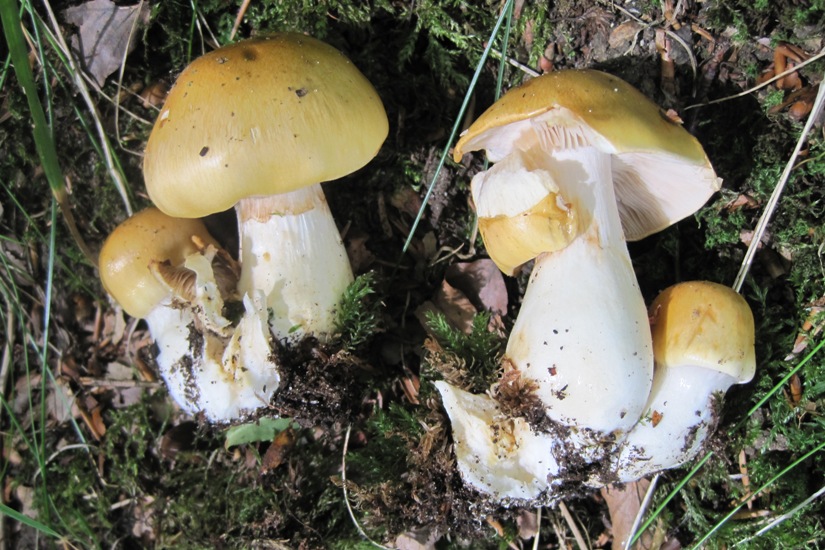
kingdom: Fungi
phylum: Basidiomycota
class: Agaricomycetes
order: Agaricales
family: Cortinariaceae
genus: Thaxterogaster
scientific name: Thaxterogaster emollitus
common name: besk slørhat
